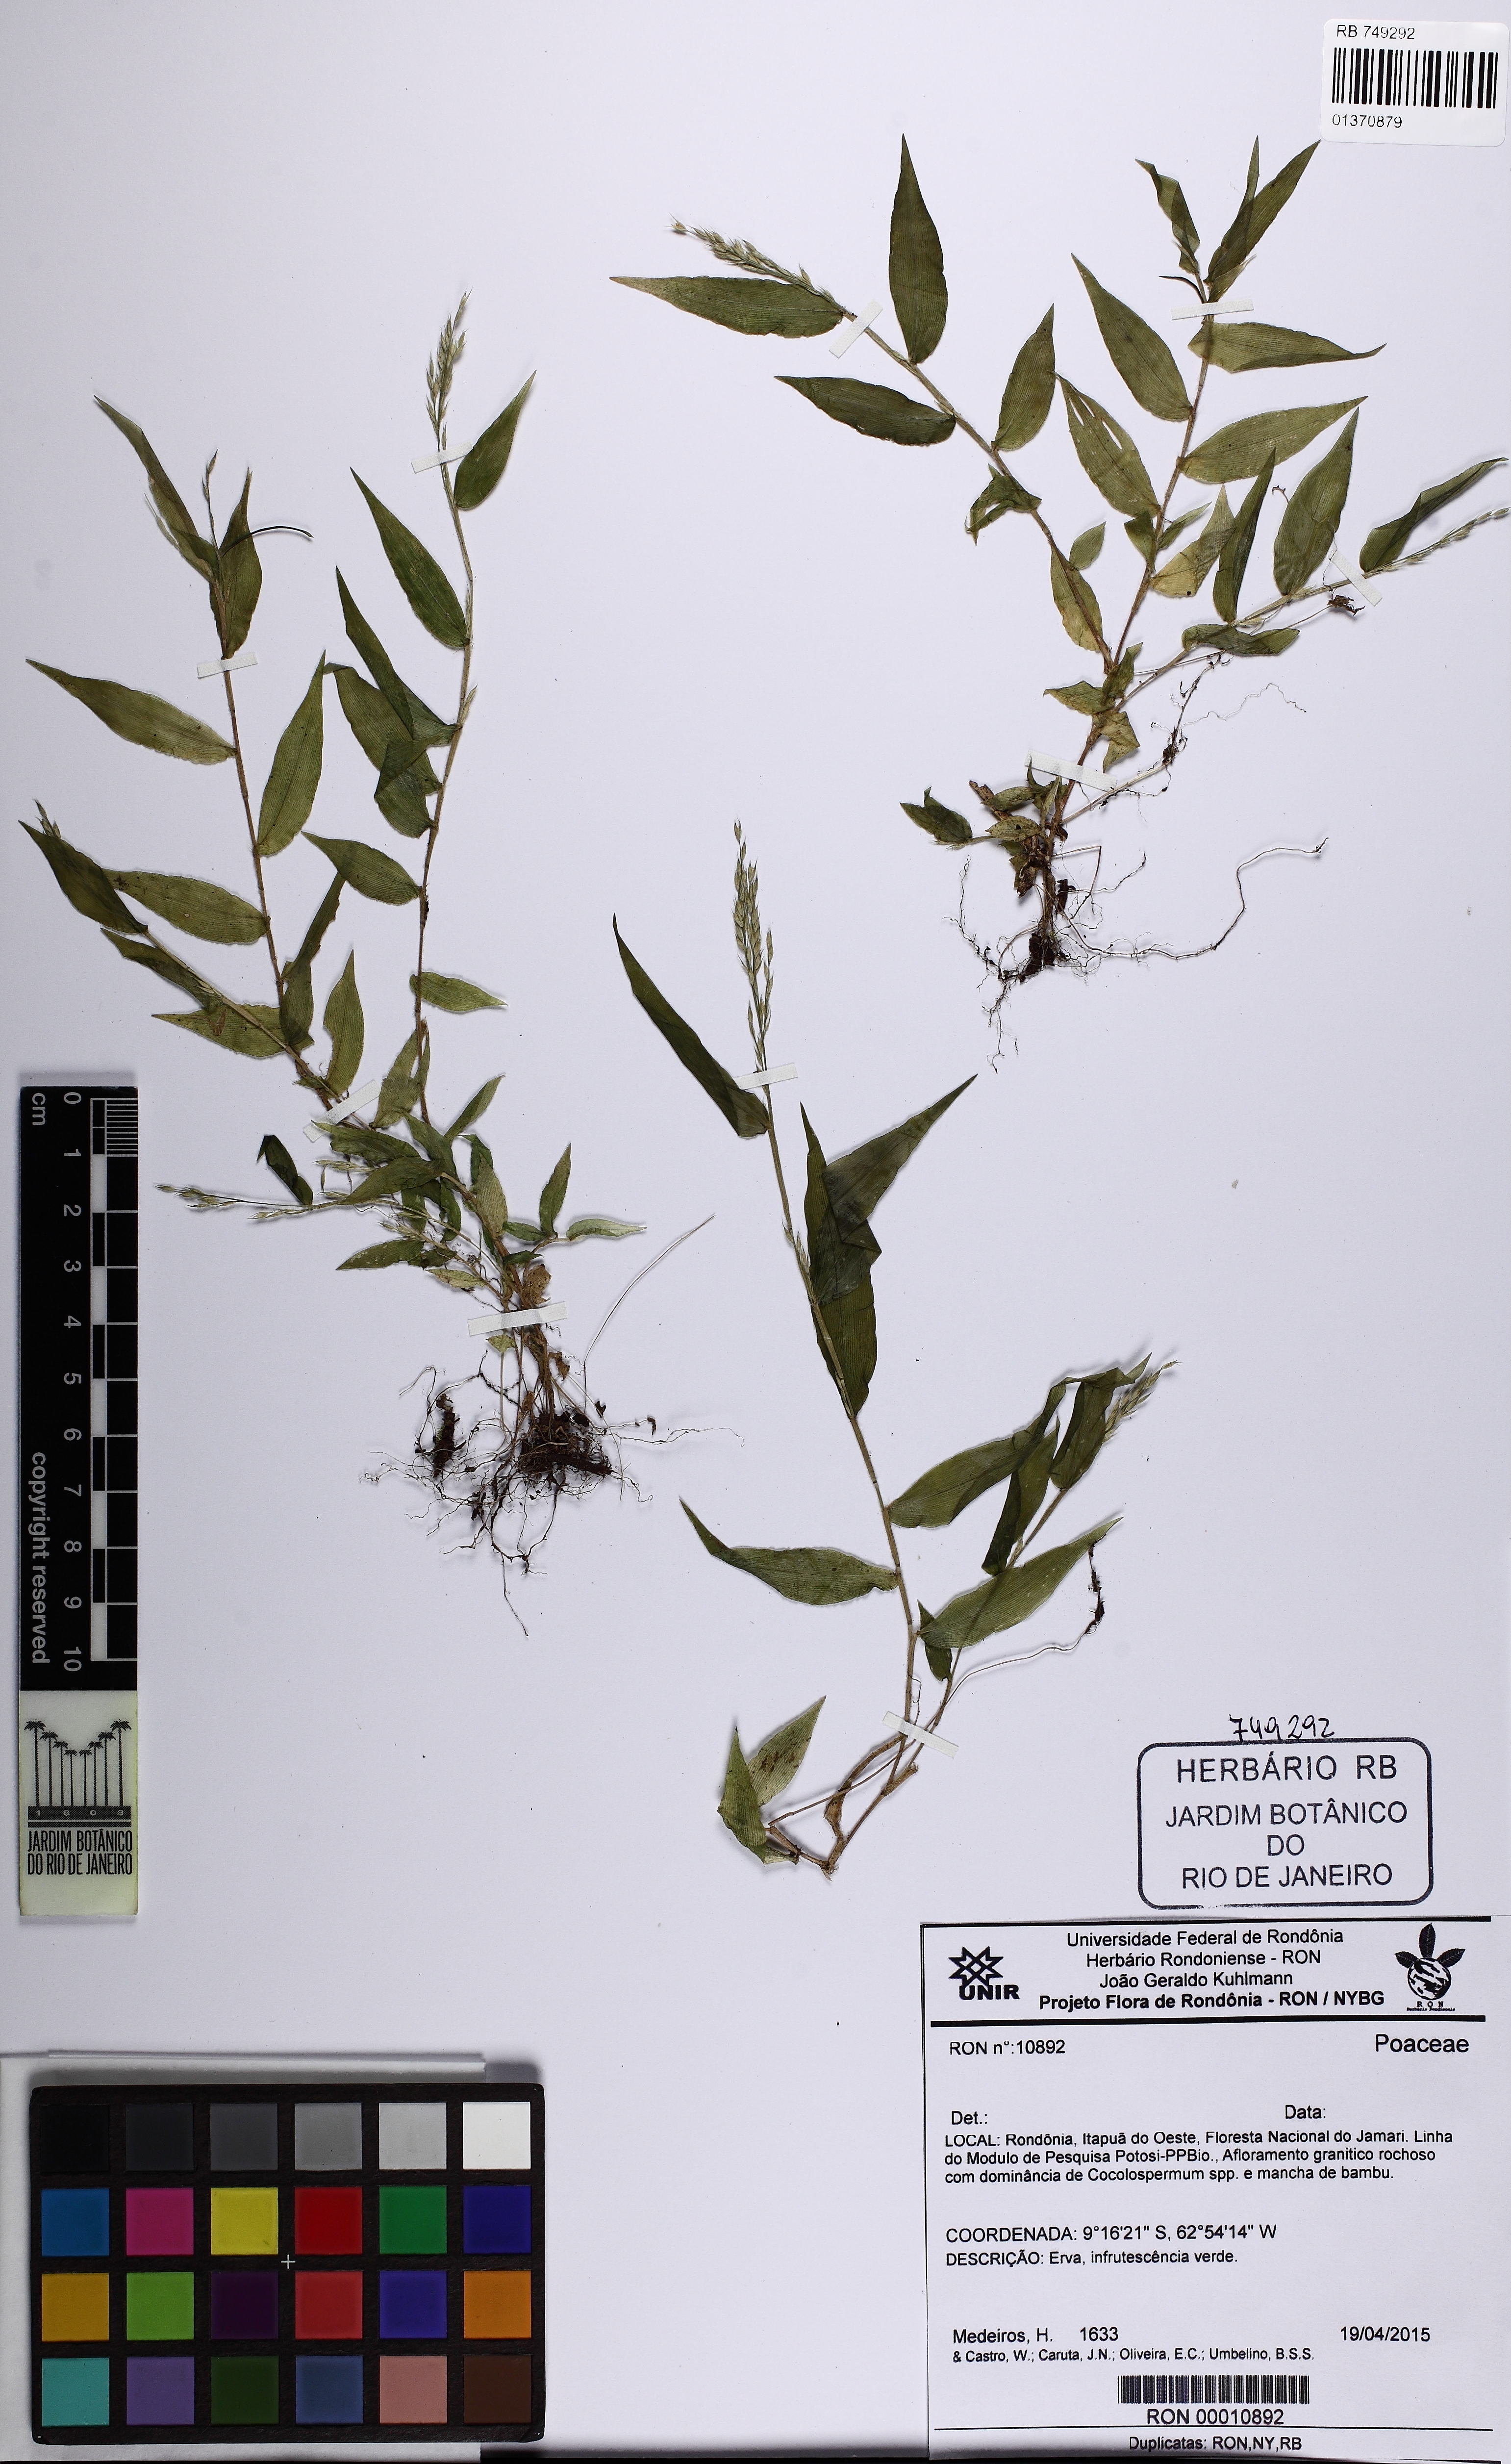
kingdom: Plantae
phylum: Tracheophyta
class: Liliopsida
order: Poales
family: Poaceae
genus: Ichnanthus
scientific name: Ichnanthus
